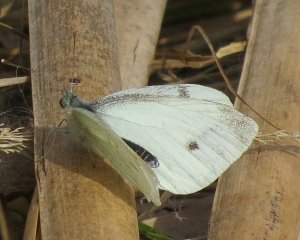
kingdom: Animalia
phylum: Arthropoda
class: Insecta
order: Lepidoptera
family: Pieridae
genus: Pieris
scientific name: Pieris rapae
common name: Cabbage White
